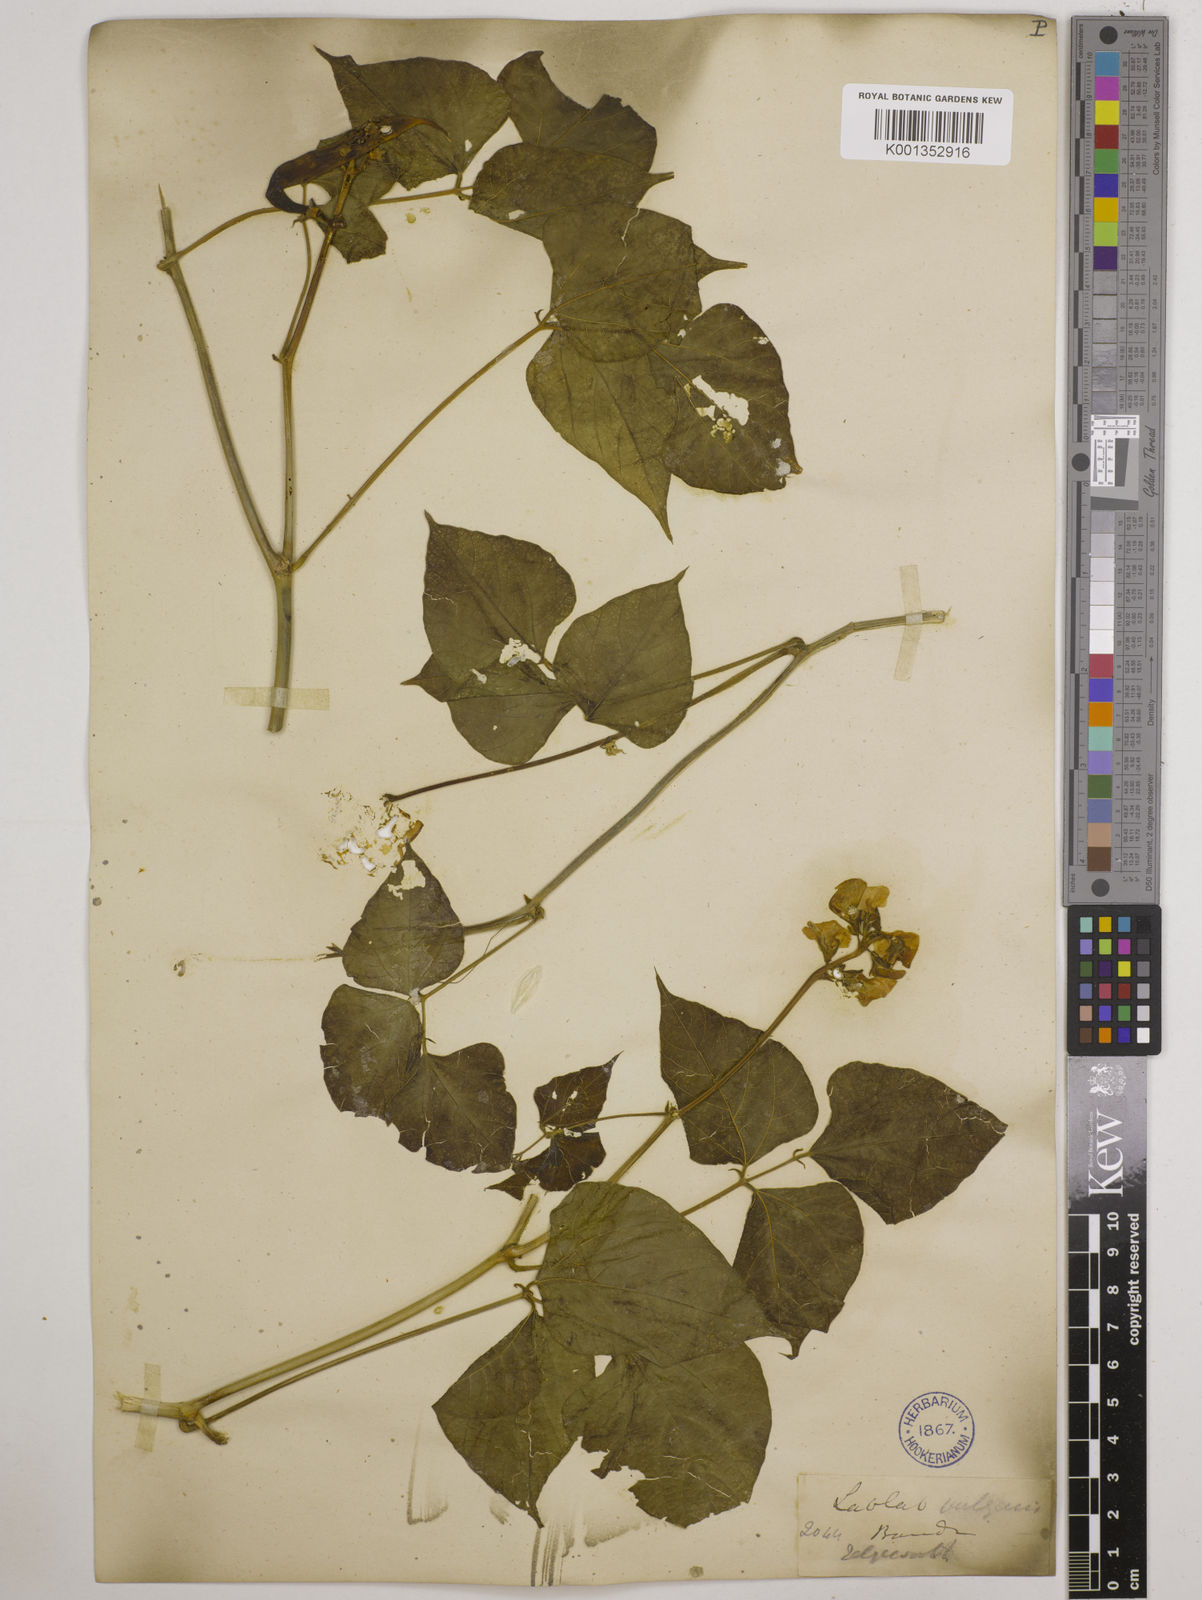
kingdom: Plantae
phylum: Tracheophyta
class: Magnoliopsida
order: Fabales
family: Fabaceae
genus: Lablab
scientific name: Lablab purpureus
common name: Lablab-bean
